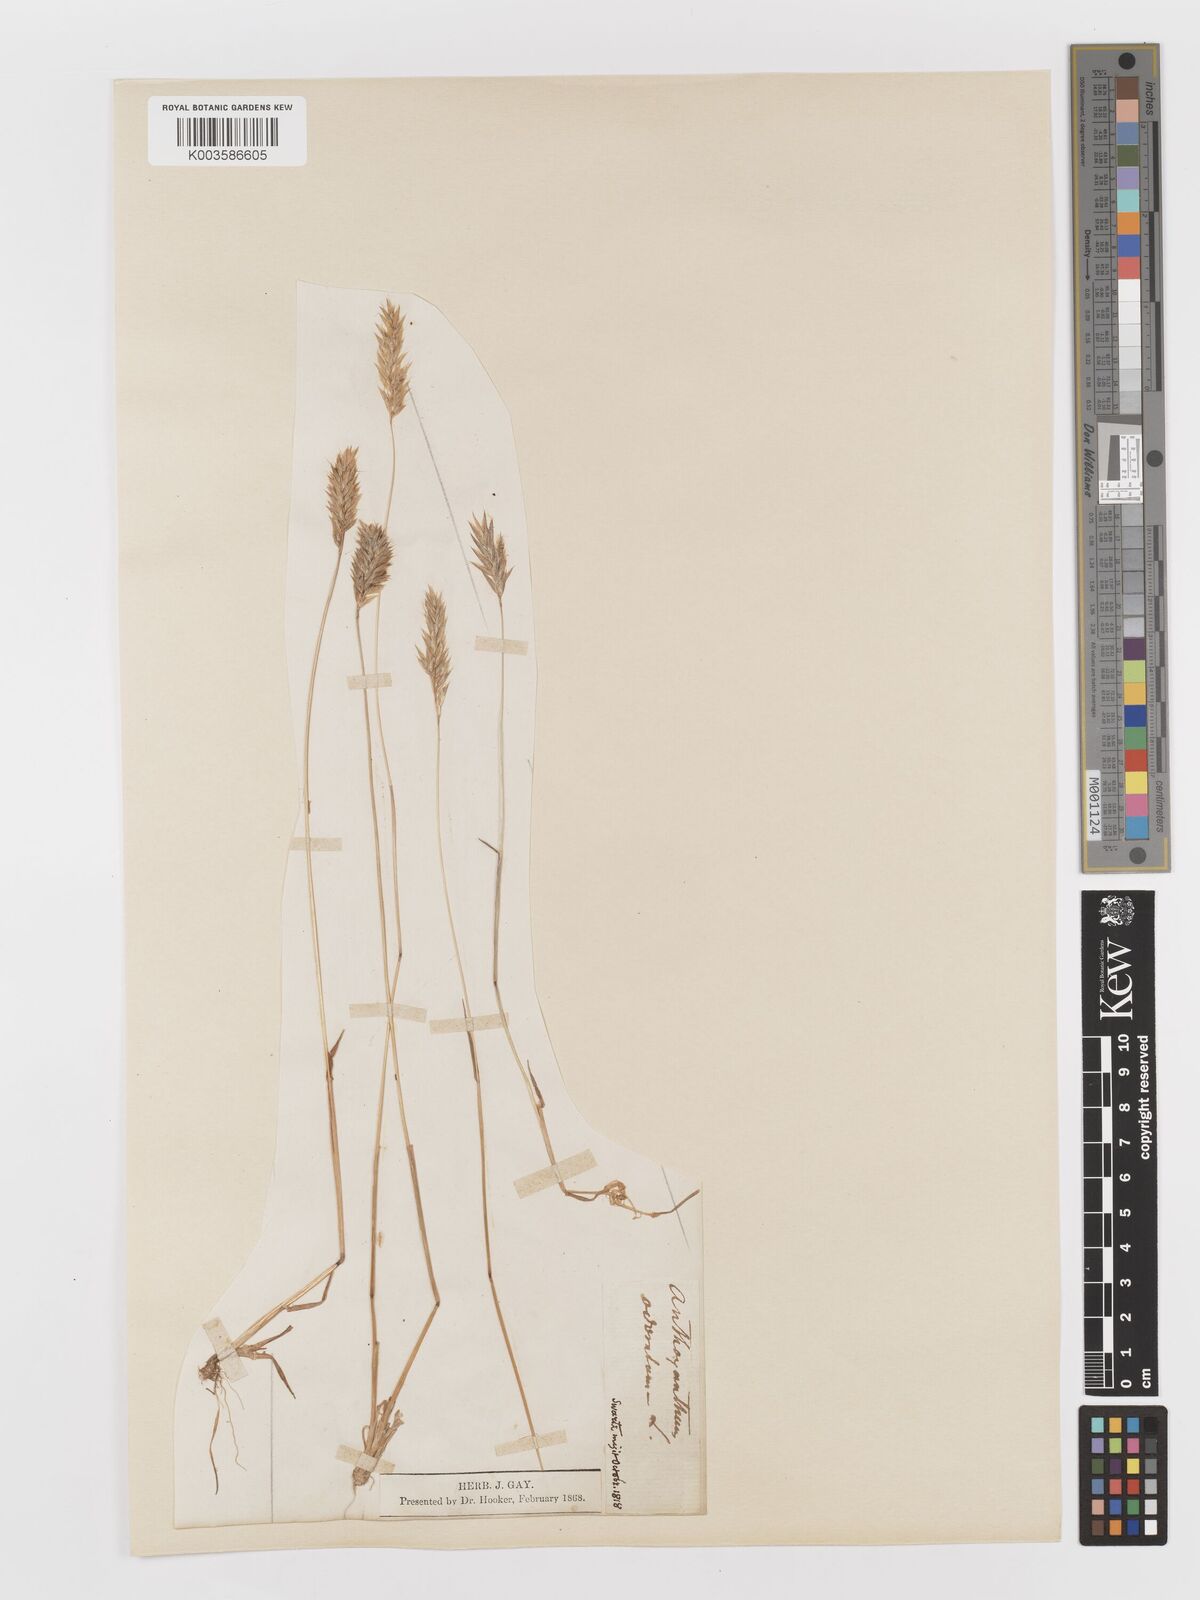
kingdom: Plantae
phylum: Tracheophyta
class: Liliopsida
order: Poales
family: Poaceae
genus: Anthoxanthum
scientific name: Anthoxanthum odoratum
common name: Sweet vernalgrass
